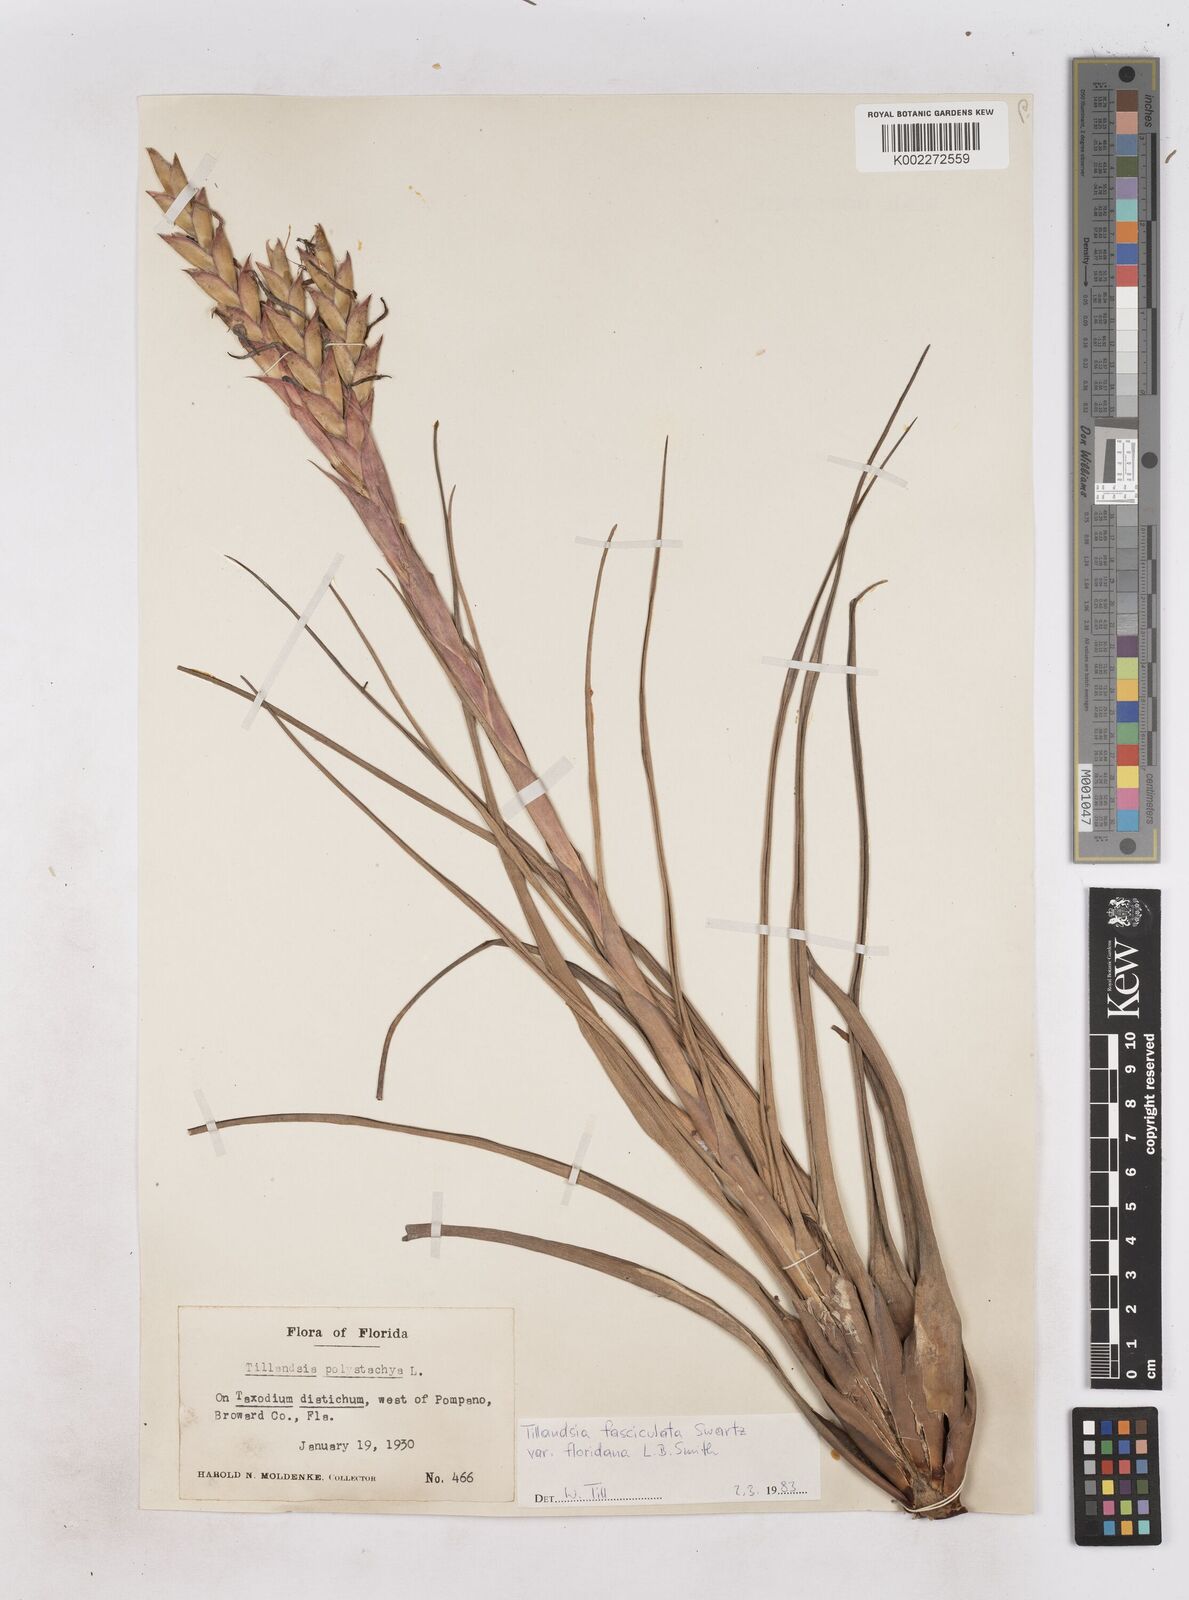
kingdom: Plantae
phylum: Tracheophyta
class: Liliopsida
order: Poales
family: Bromeliaceae
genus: Tillandsia
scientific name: Tillandsia floridana
